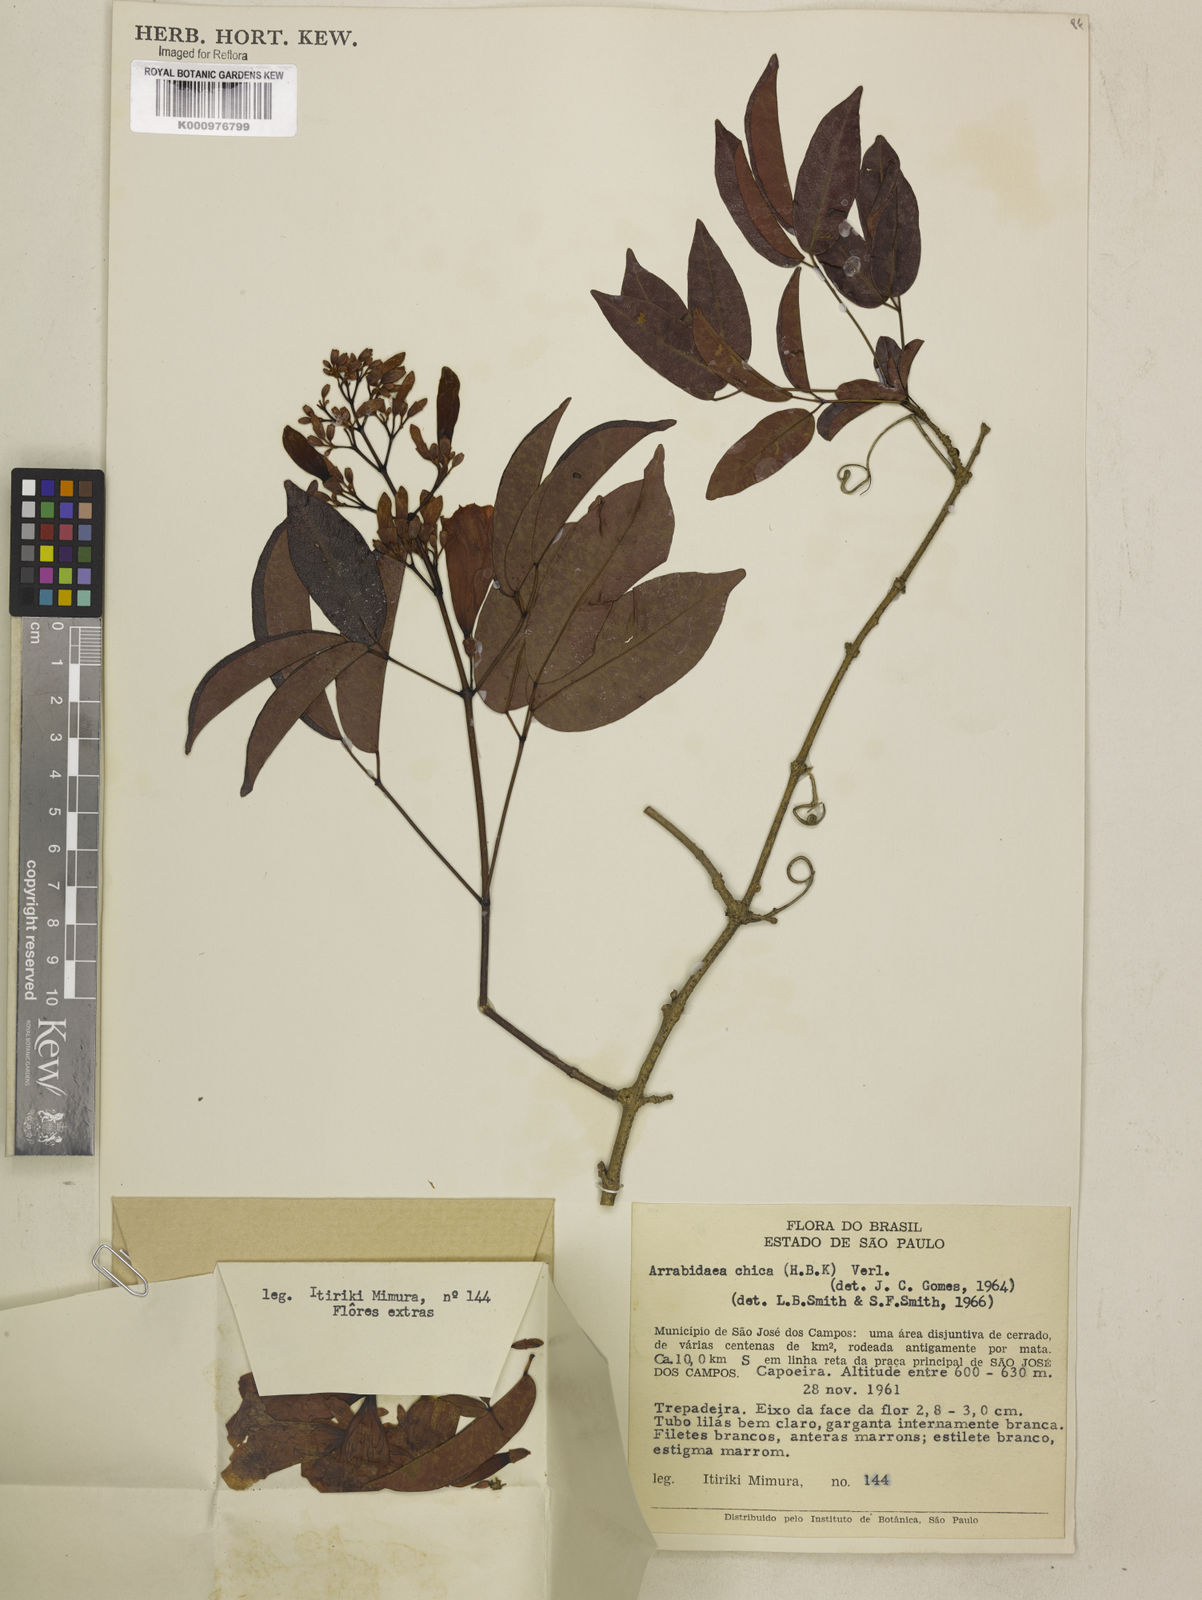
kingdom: Plantae
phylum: Tracheophyta
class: Magnoliopsida
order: Lamiales
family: Bignoniaceae
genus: Fridericia
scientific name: Fridericia chica
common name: Cricketvine
